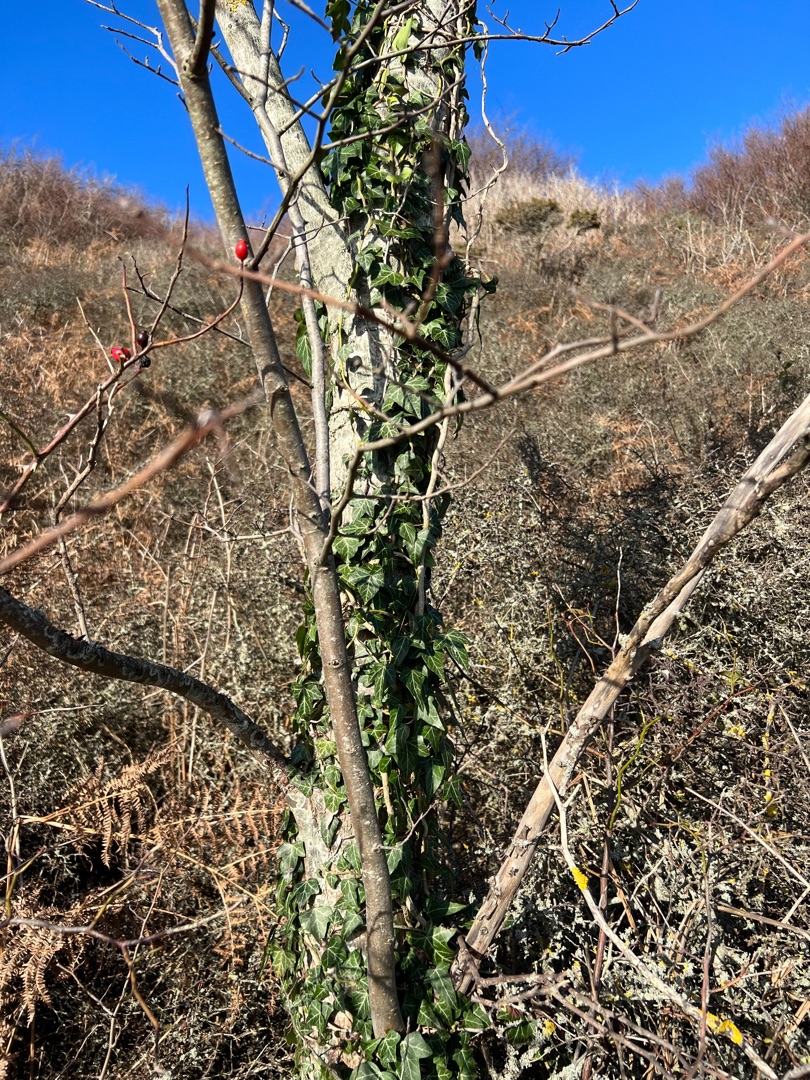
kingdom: Plantae
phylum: Tracheophyta
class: Magnoliopsida
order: Apiales
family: Araliaceae
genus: Hedera
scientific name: Hedera helix
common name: Vedbend
